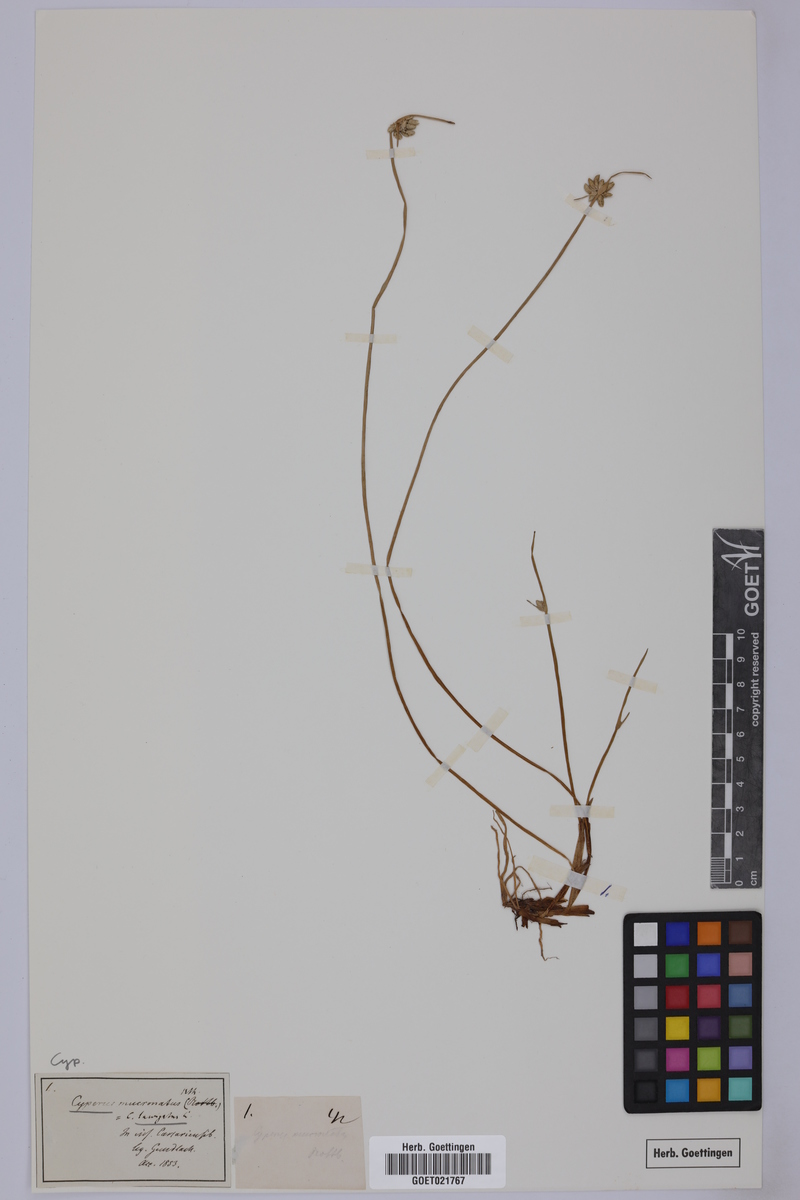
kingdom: Plantae
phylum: Tracheophyta
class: Liliopsida
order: Poales
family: Cyperaceae
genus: Cyperus
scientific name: Cyperus laevigatus
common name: Smooth flat sedge
